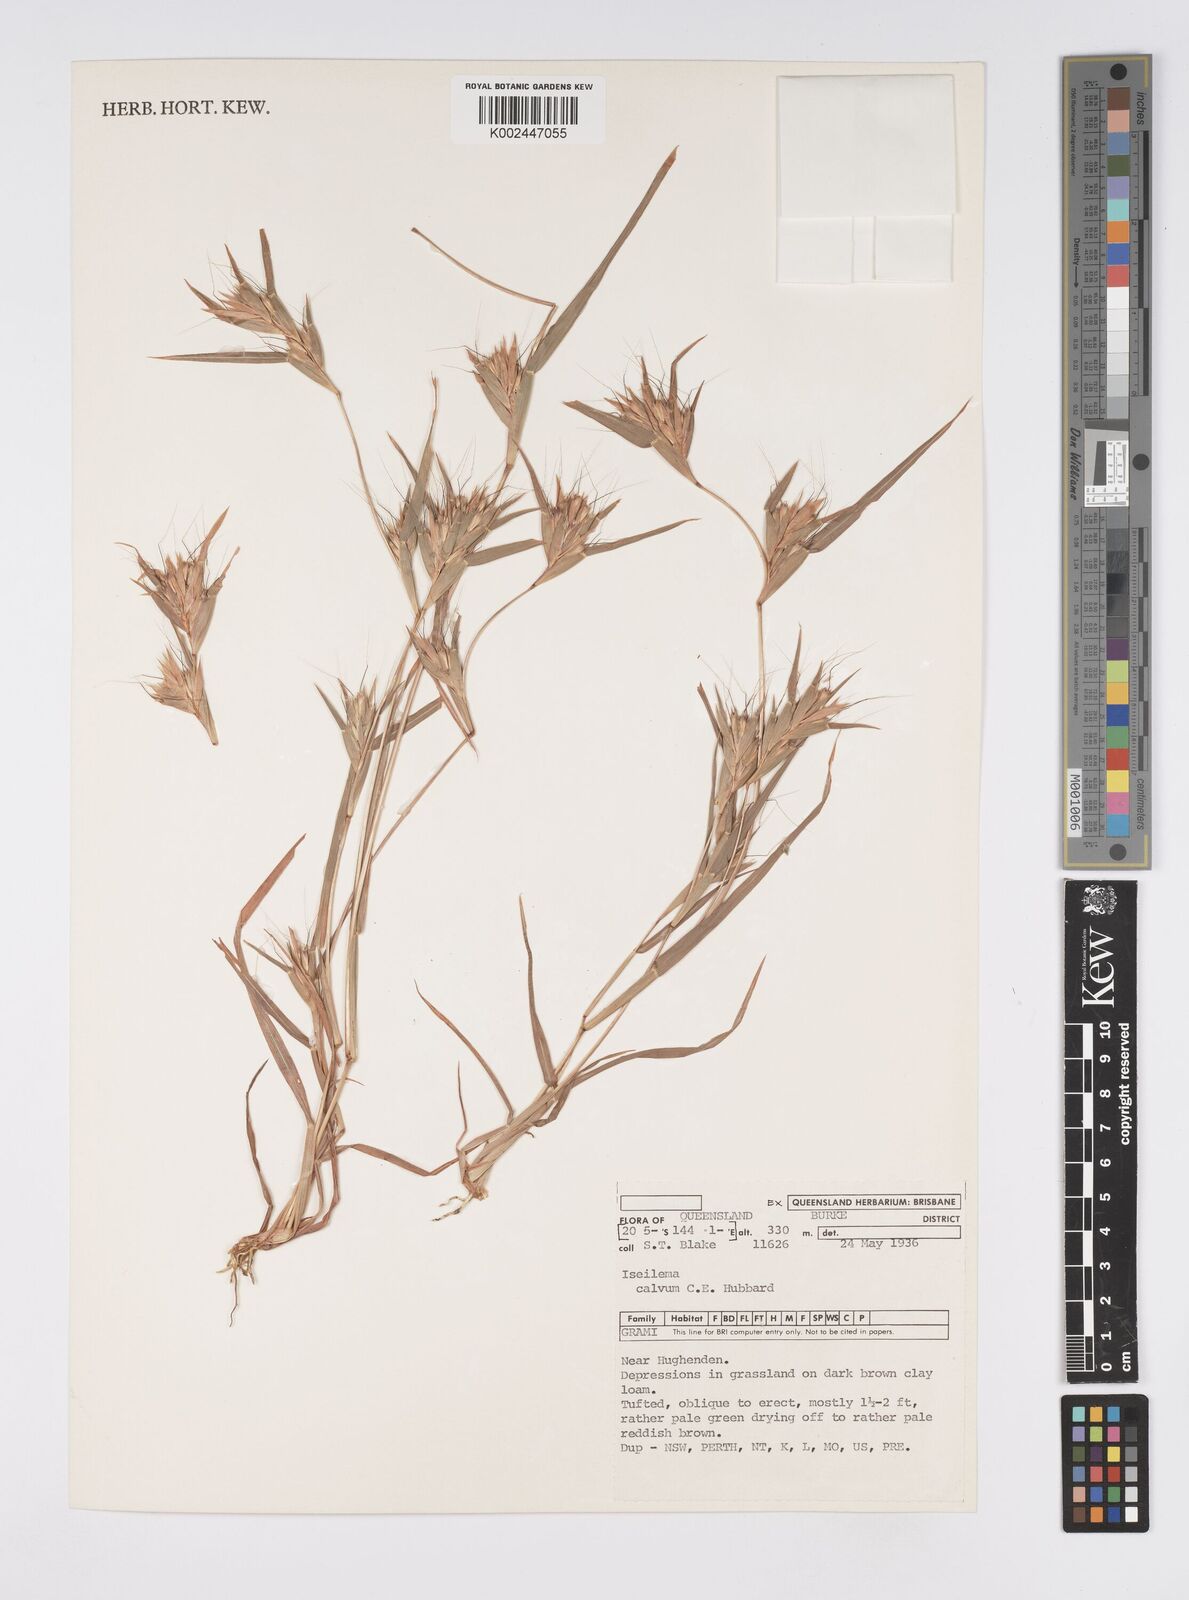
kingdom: Plantae
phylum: Tracheophyta
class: Liliopsida
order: Poales
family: Poaceae
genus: Iseilema
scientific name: Iseilema calvum
